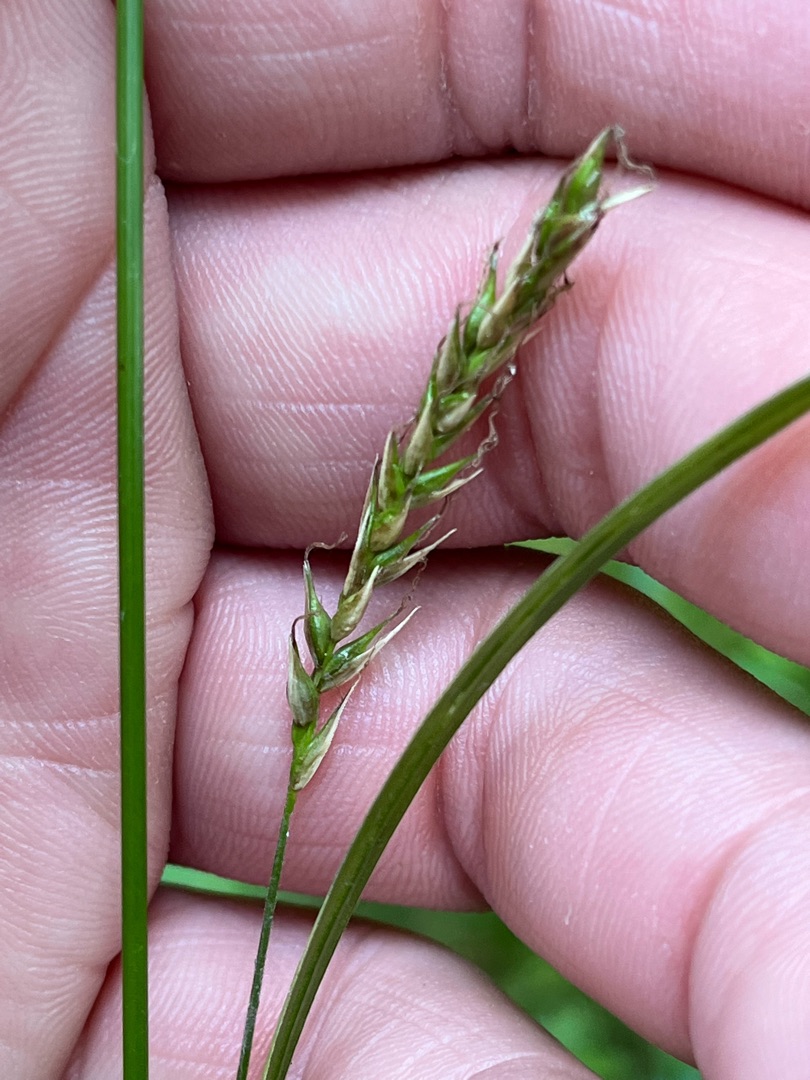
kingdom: Plantae
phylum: Tracheophyta
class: Liliopsida
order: Poales
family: Cyperaceae
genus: Carex
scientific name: Carex sylvatica
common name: Skov-star
